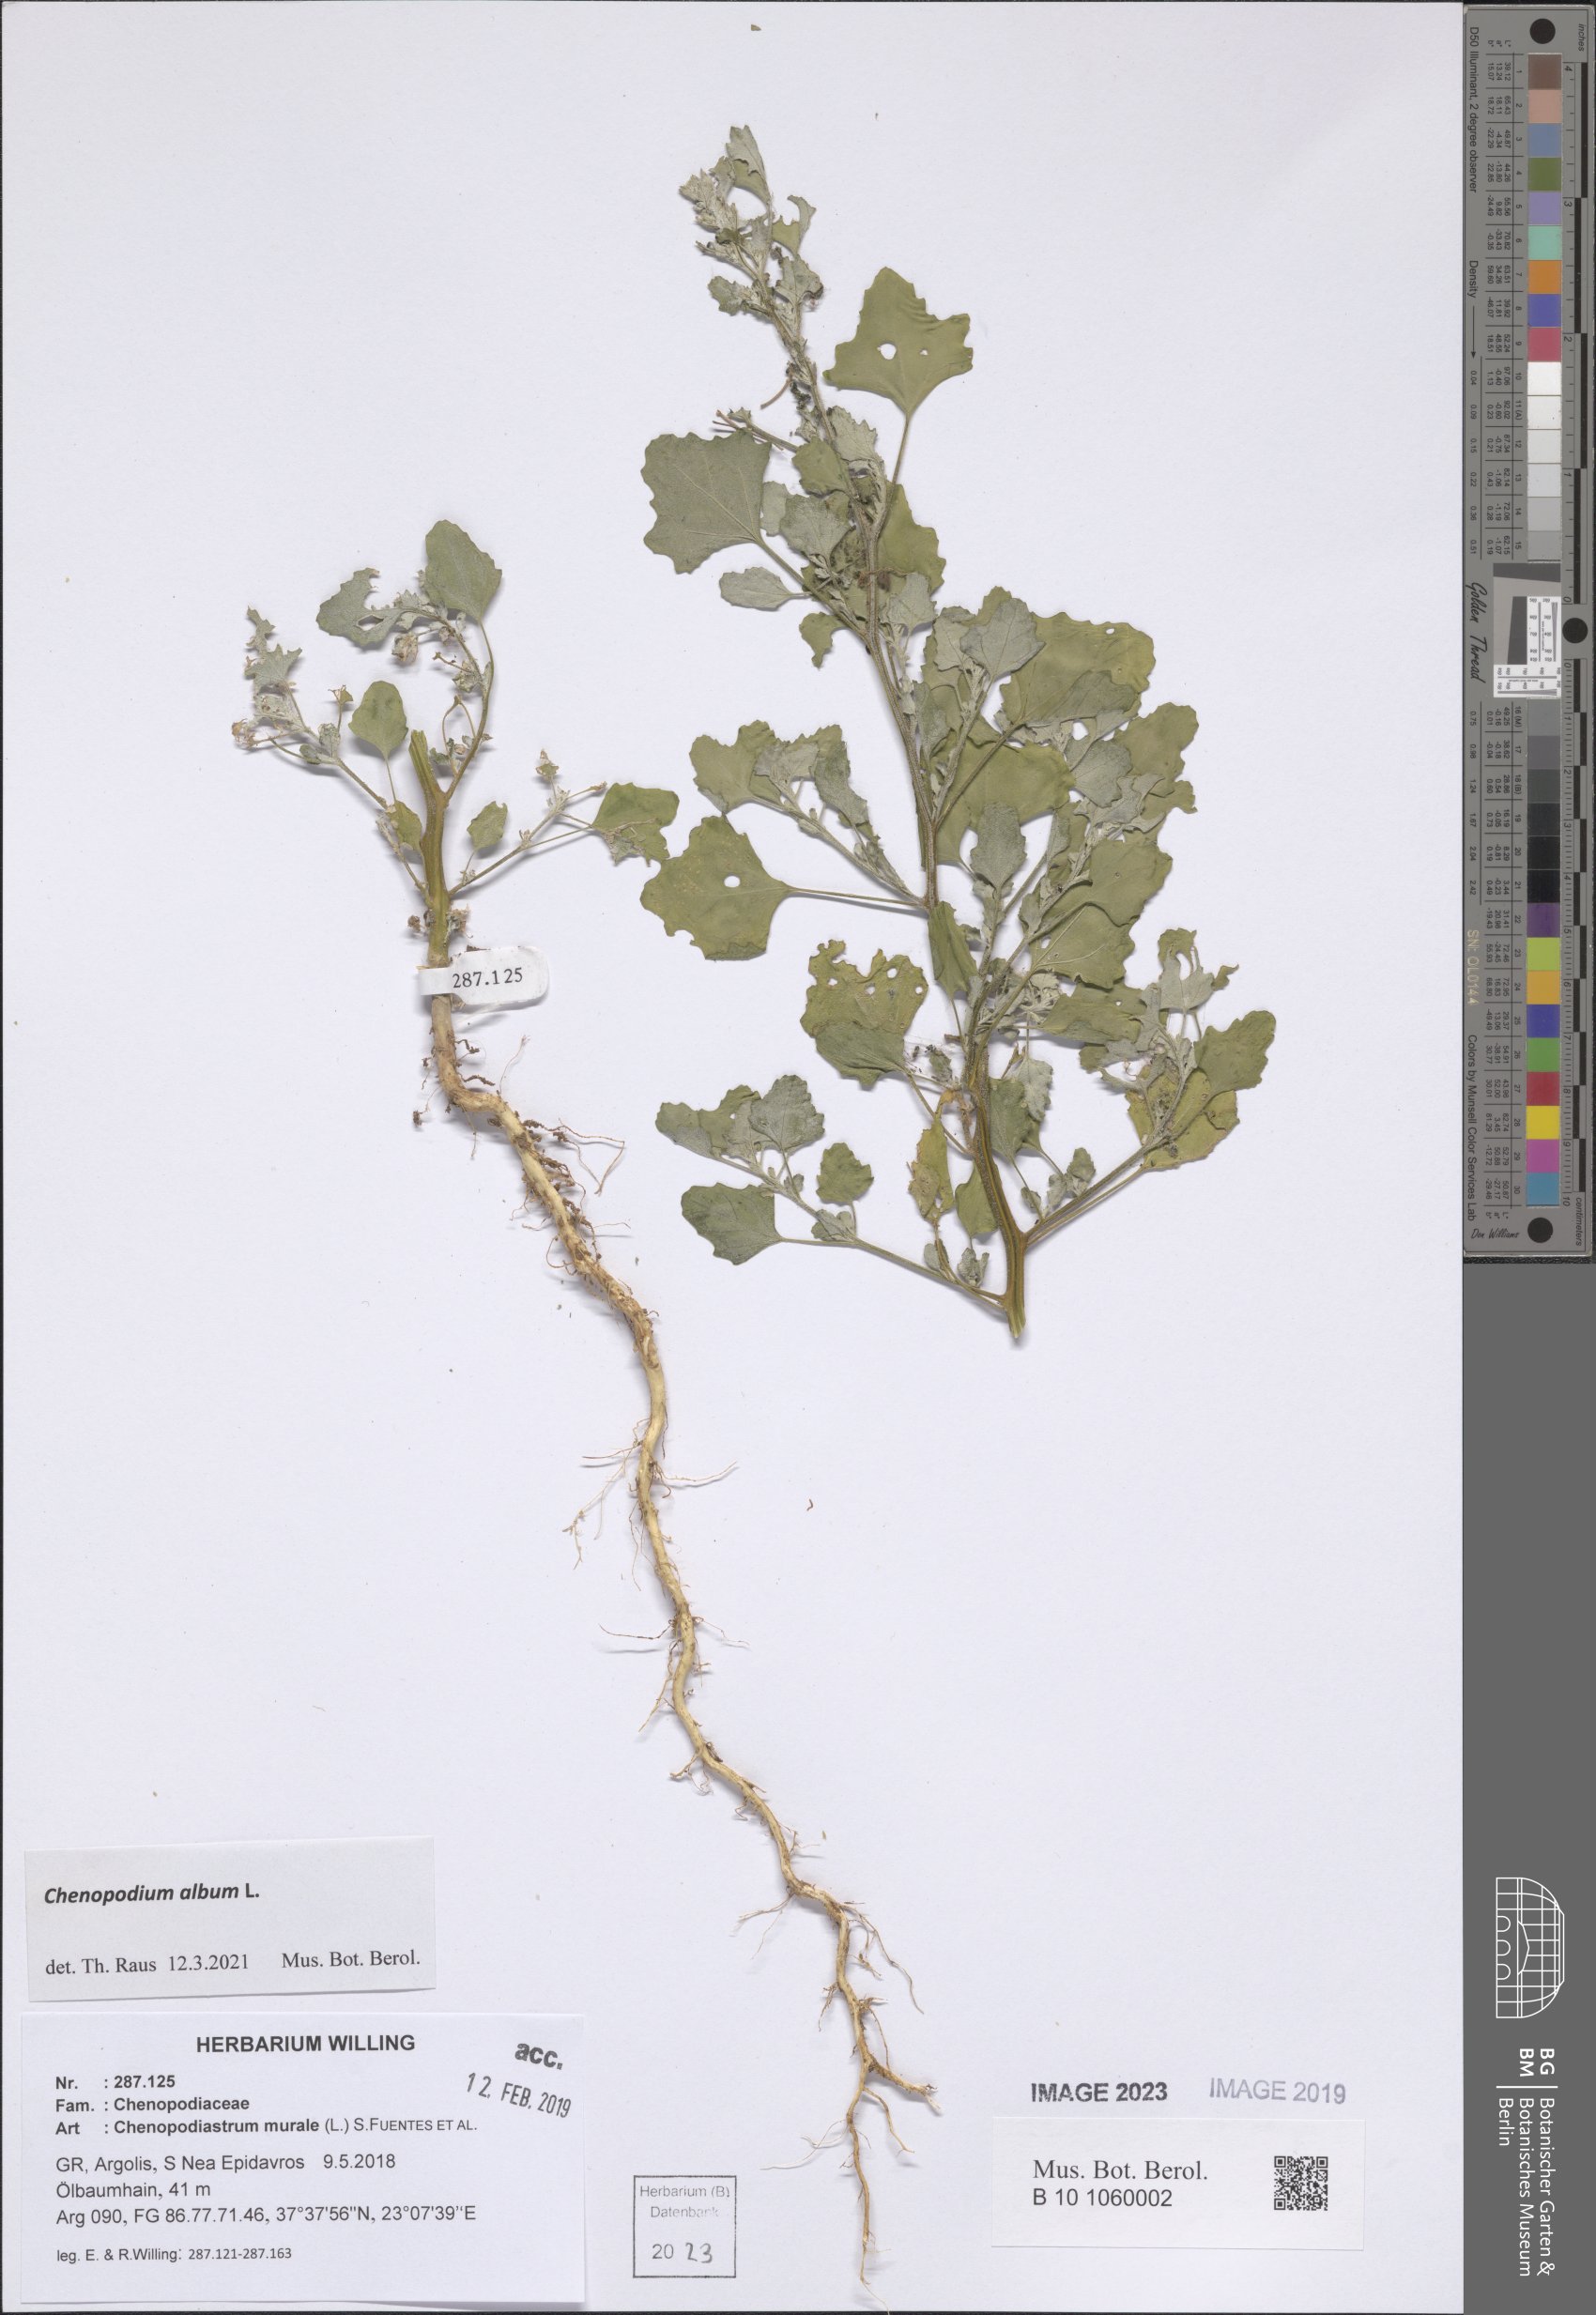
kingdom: Plantae
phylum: Tracheophyta
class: Magnoliopsida
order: Caryophyllales
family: Amaranthaceae
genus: Chenopodium
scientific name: Chenopodium album
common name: Fat-hen
